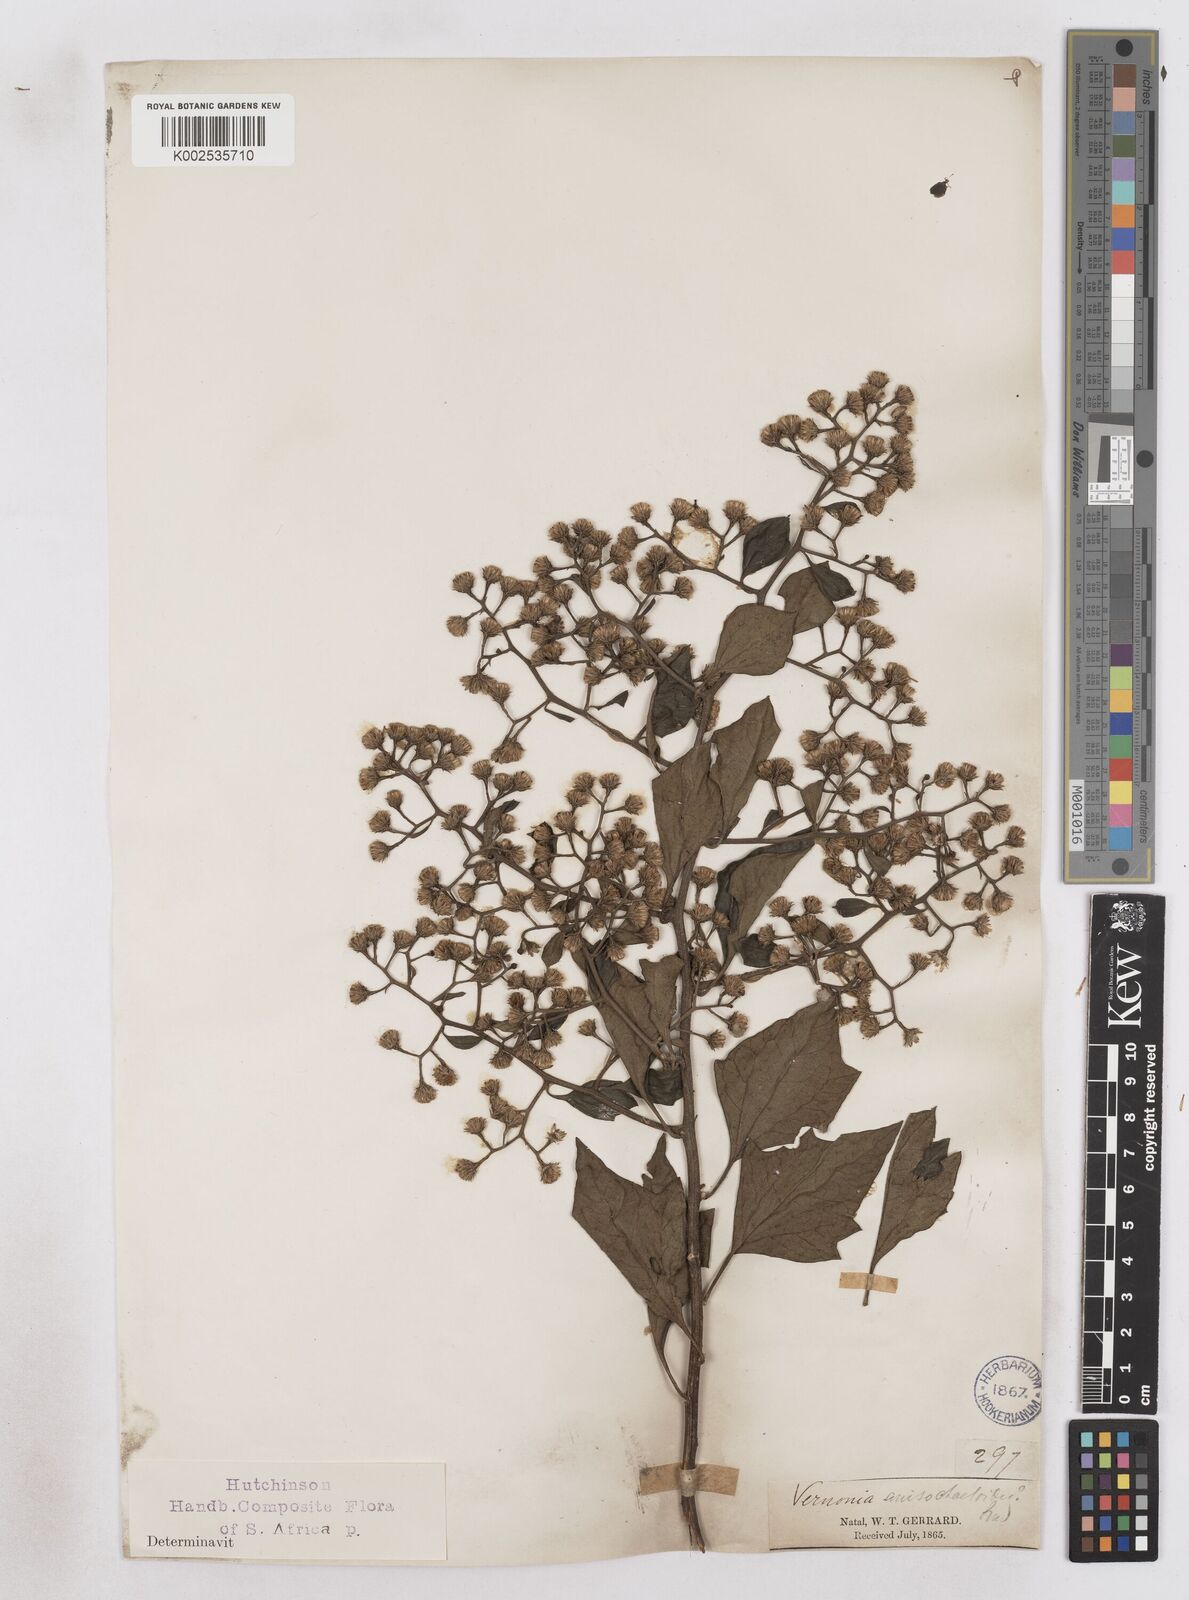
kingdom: Plantae
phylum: Tracheophyta
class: Magnoliopsida
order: Asterales
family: Asteraceae
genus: Distephanus
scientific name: Distephanus anisochaetoides
